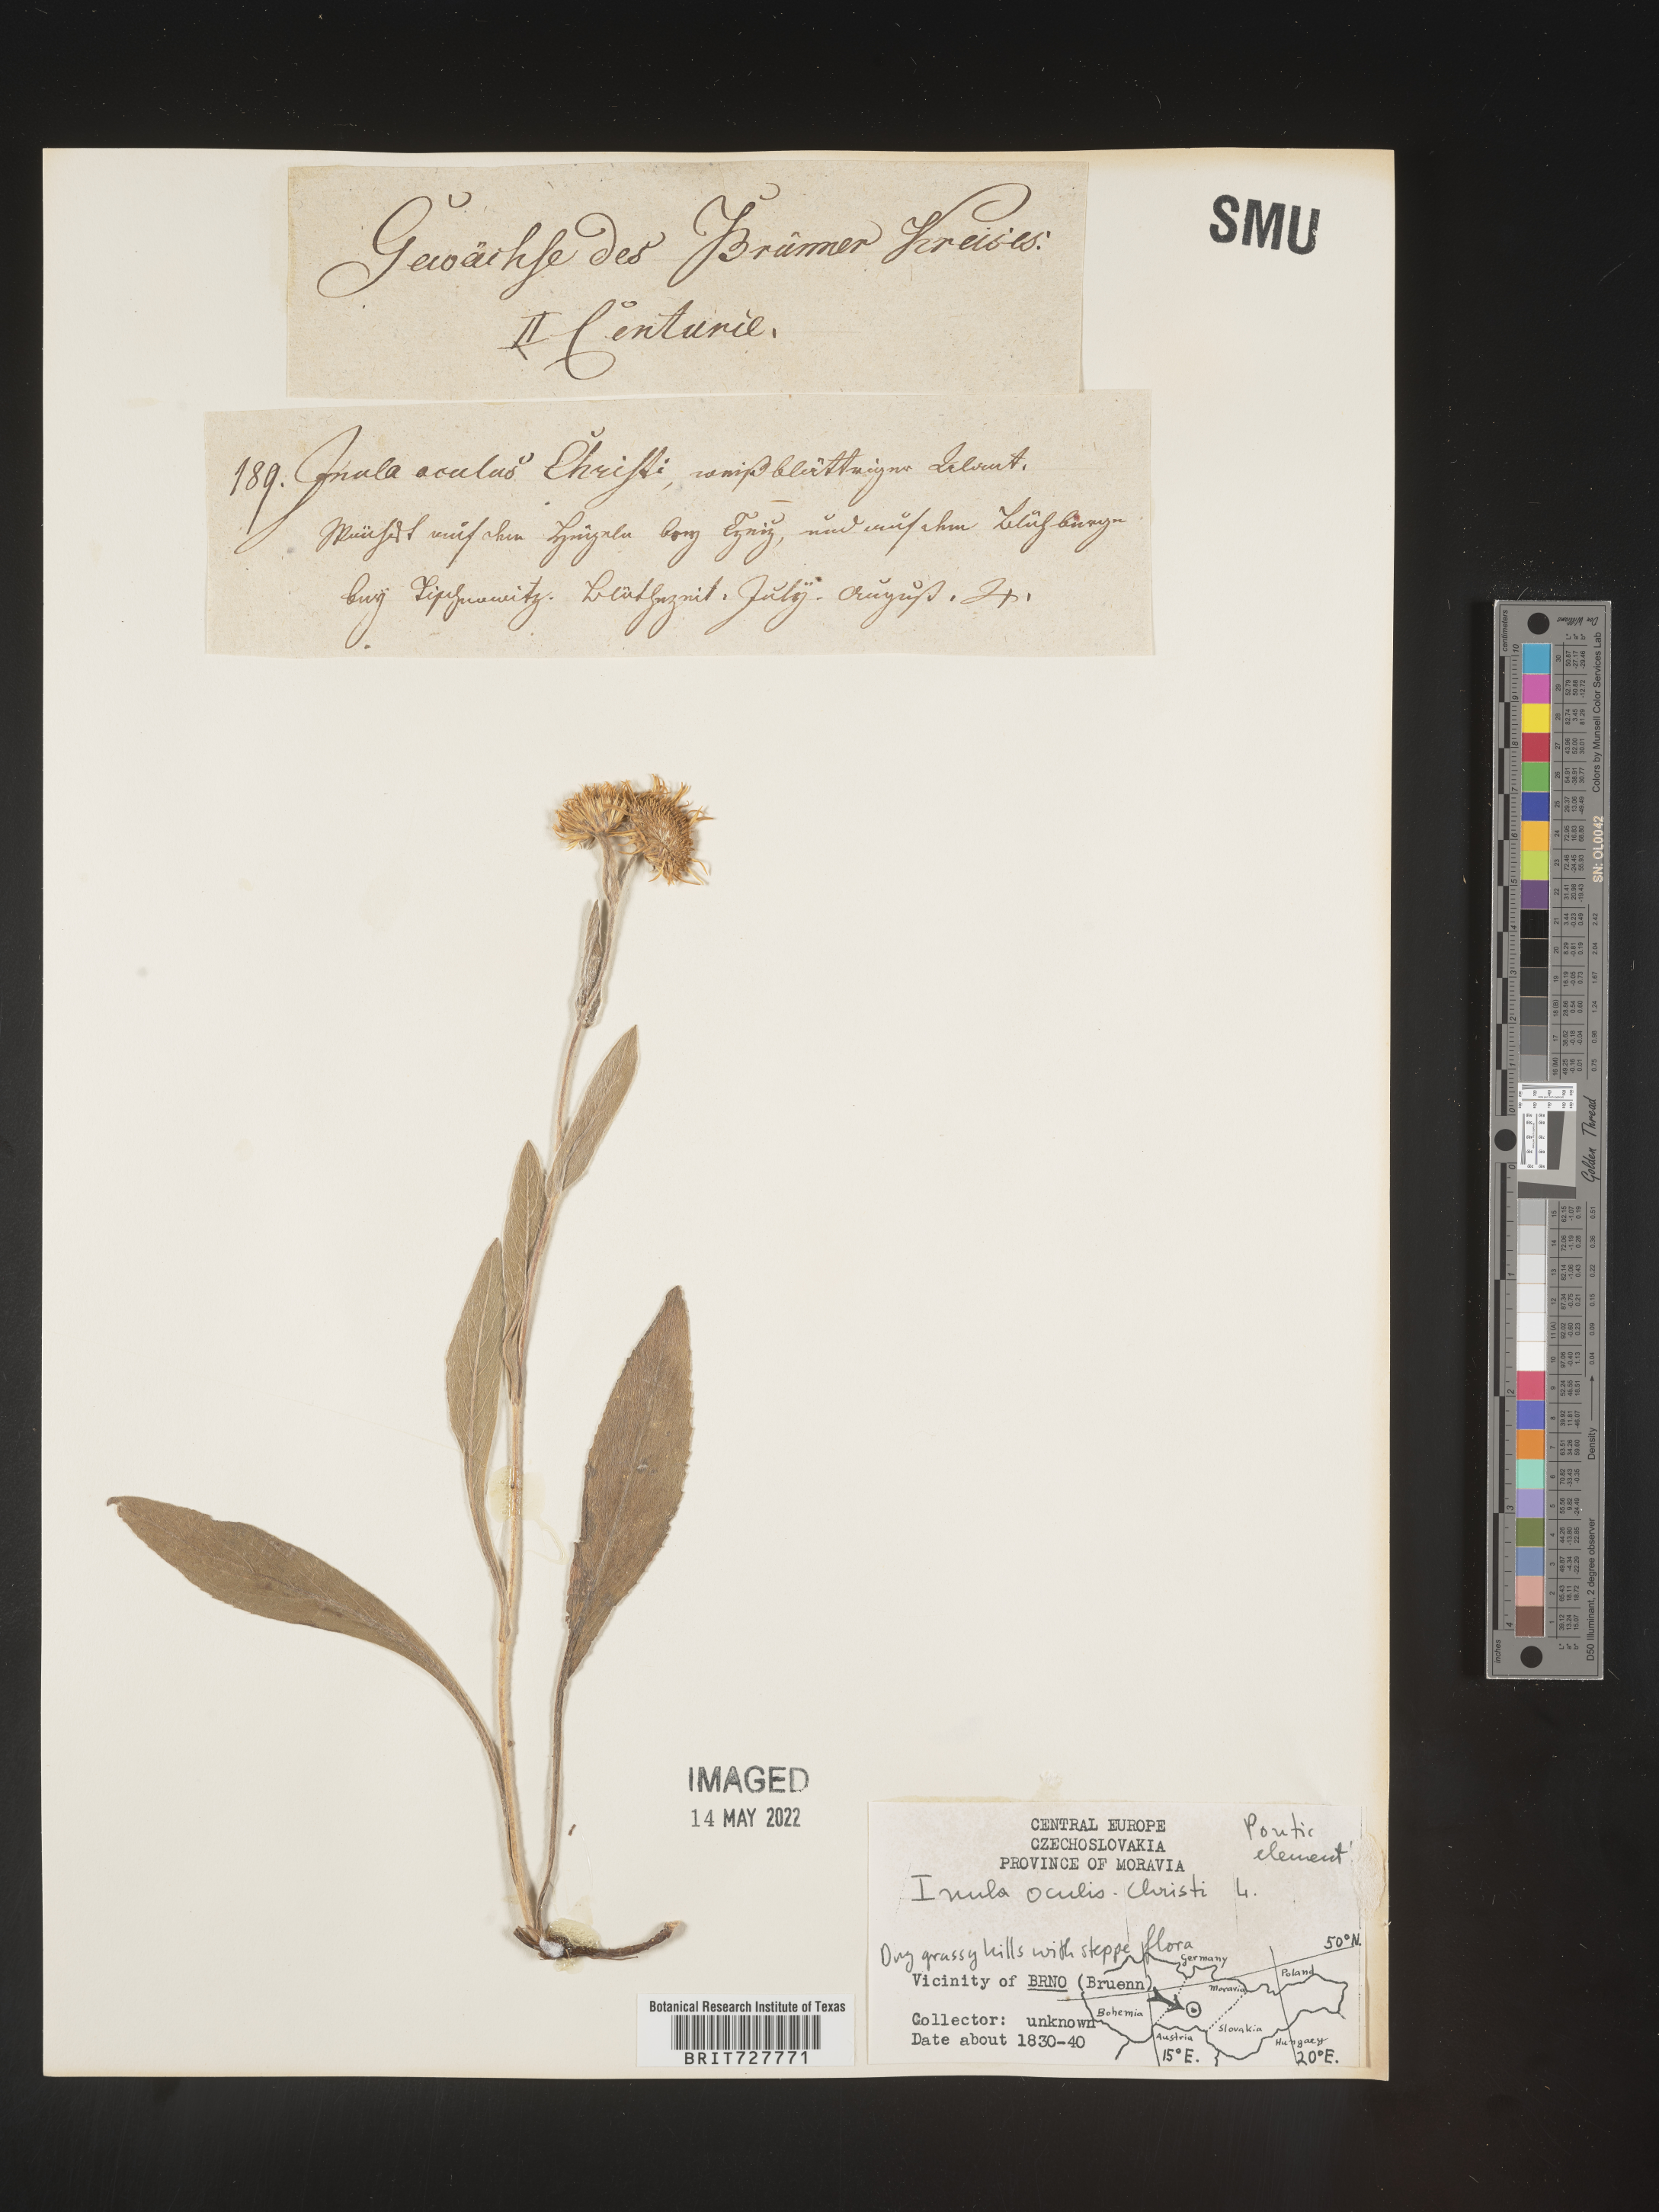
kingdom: Plantae
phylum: Tracheophyta
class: Magnoliopsida
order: Asterales
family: Asteraceae
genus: Inula
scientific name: Inula
